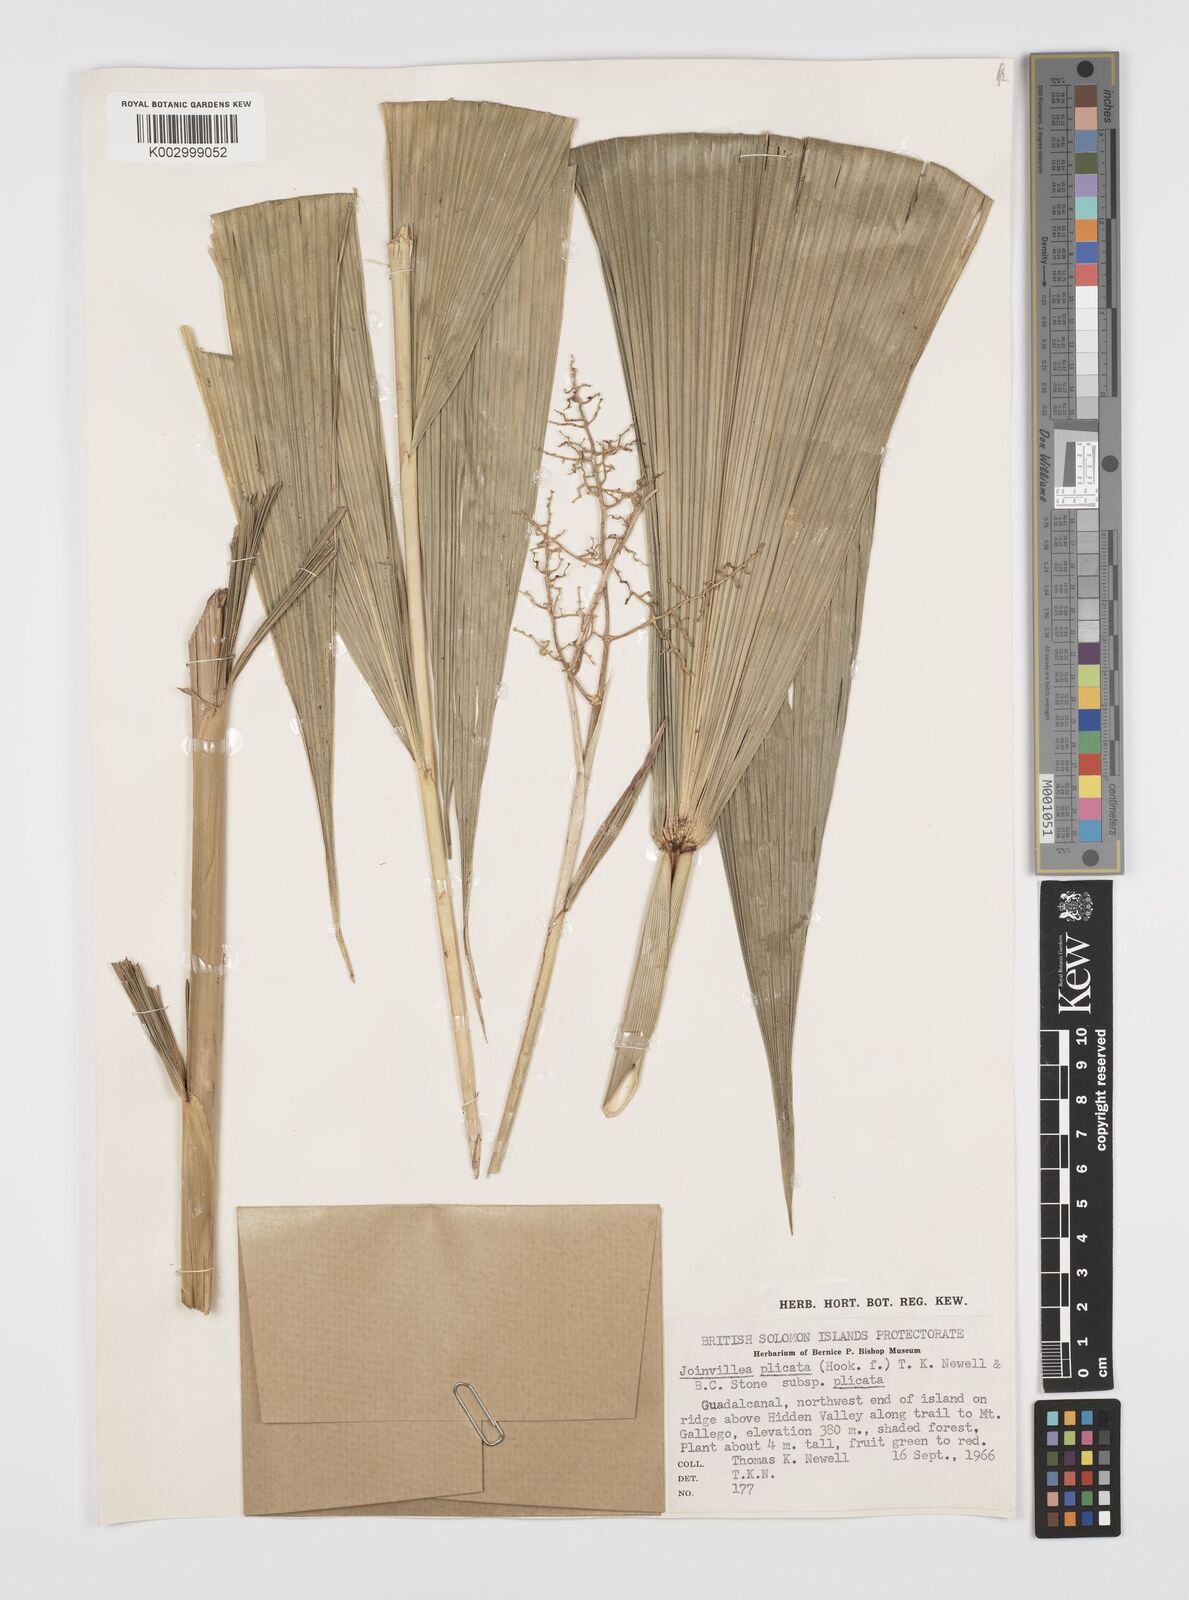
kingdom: Plantae
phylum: Tracheophyta
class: Liliopsida
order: Poales
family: Joinvilleaceae
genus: Joinvillea
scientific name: Joinvillea plicata
